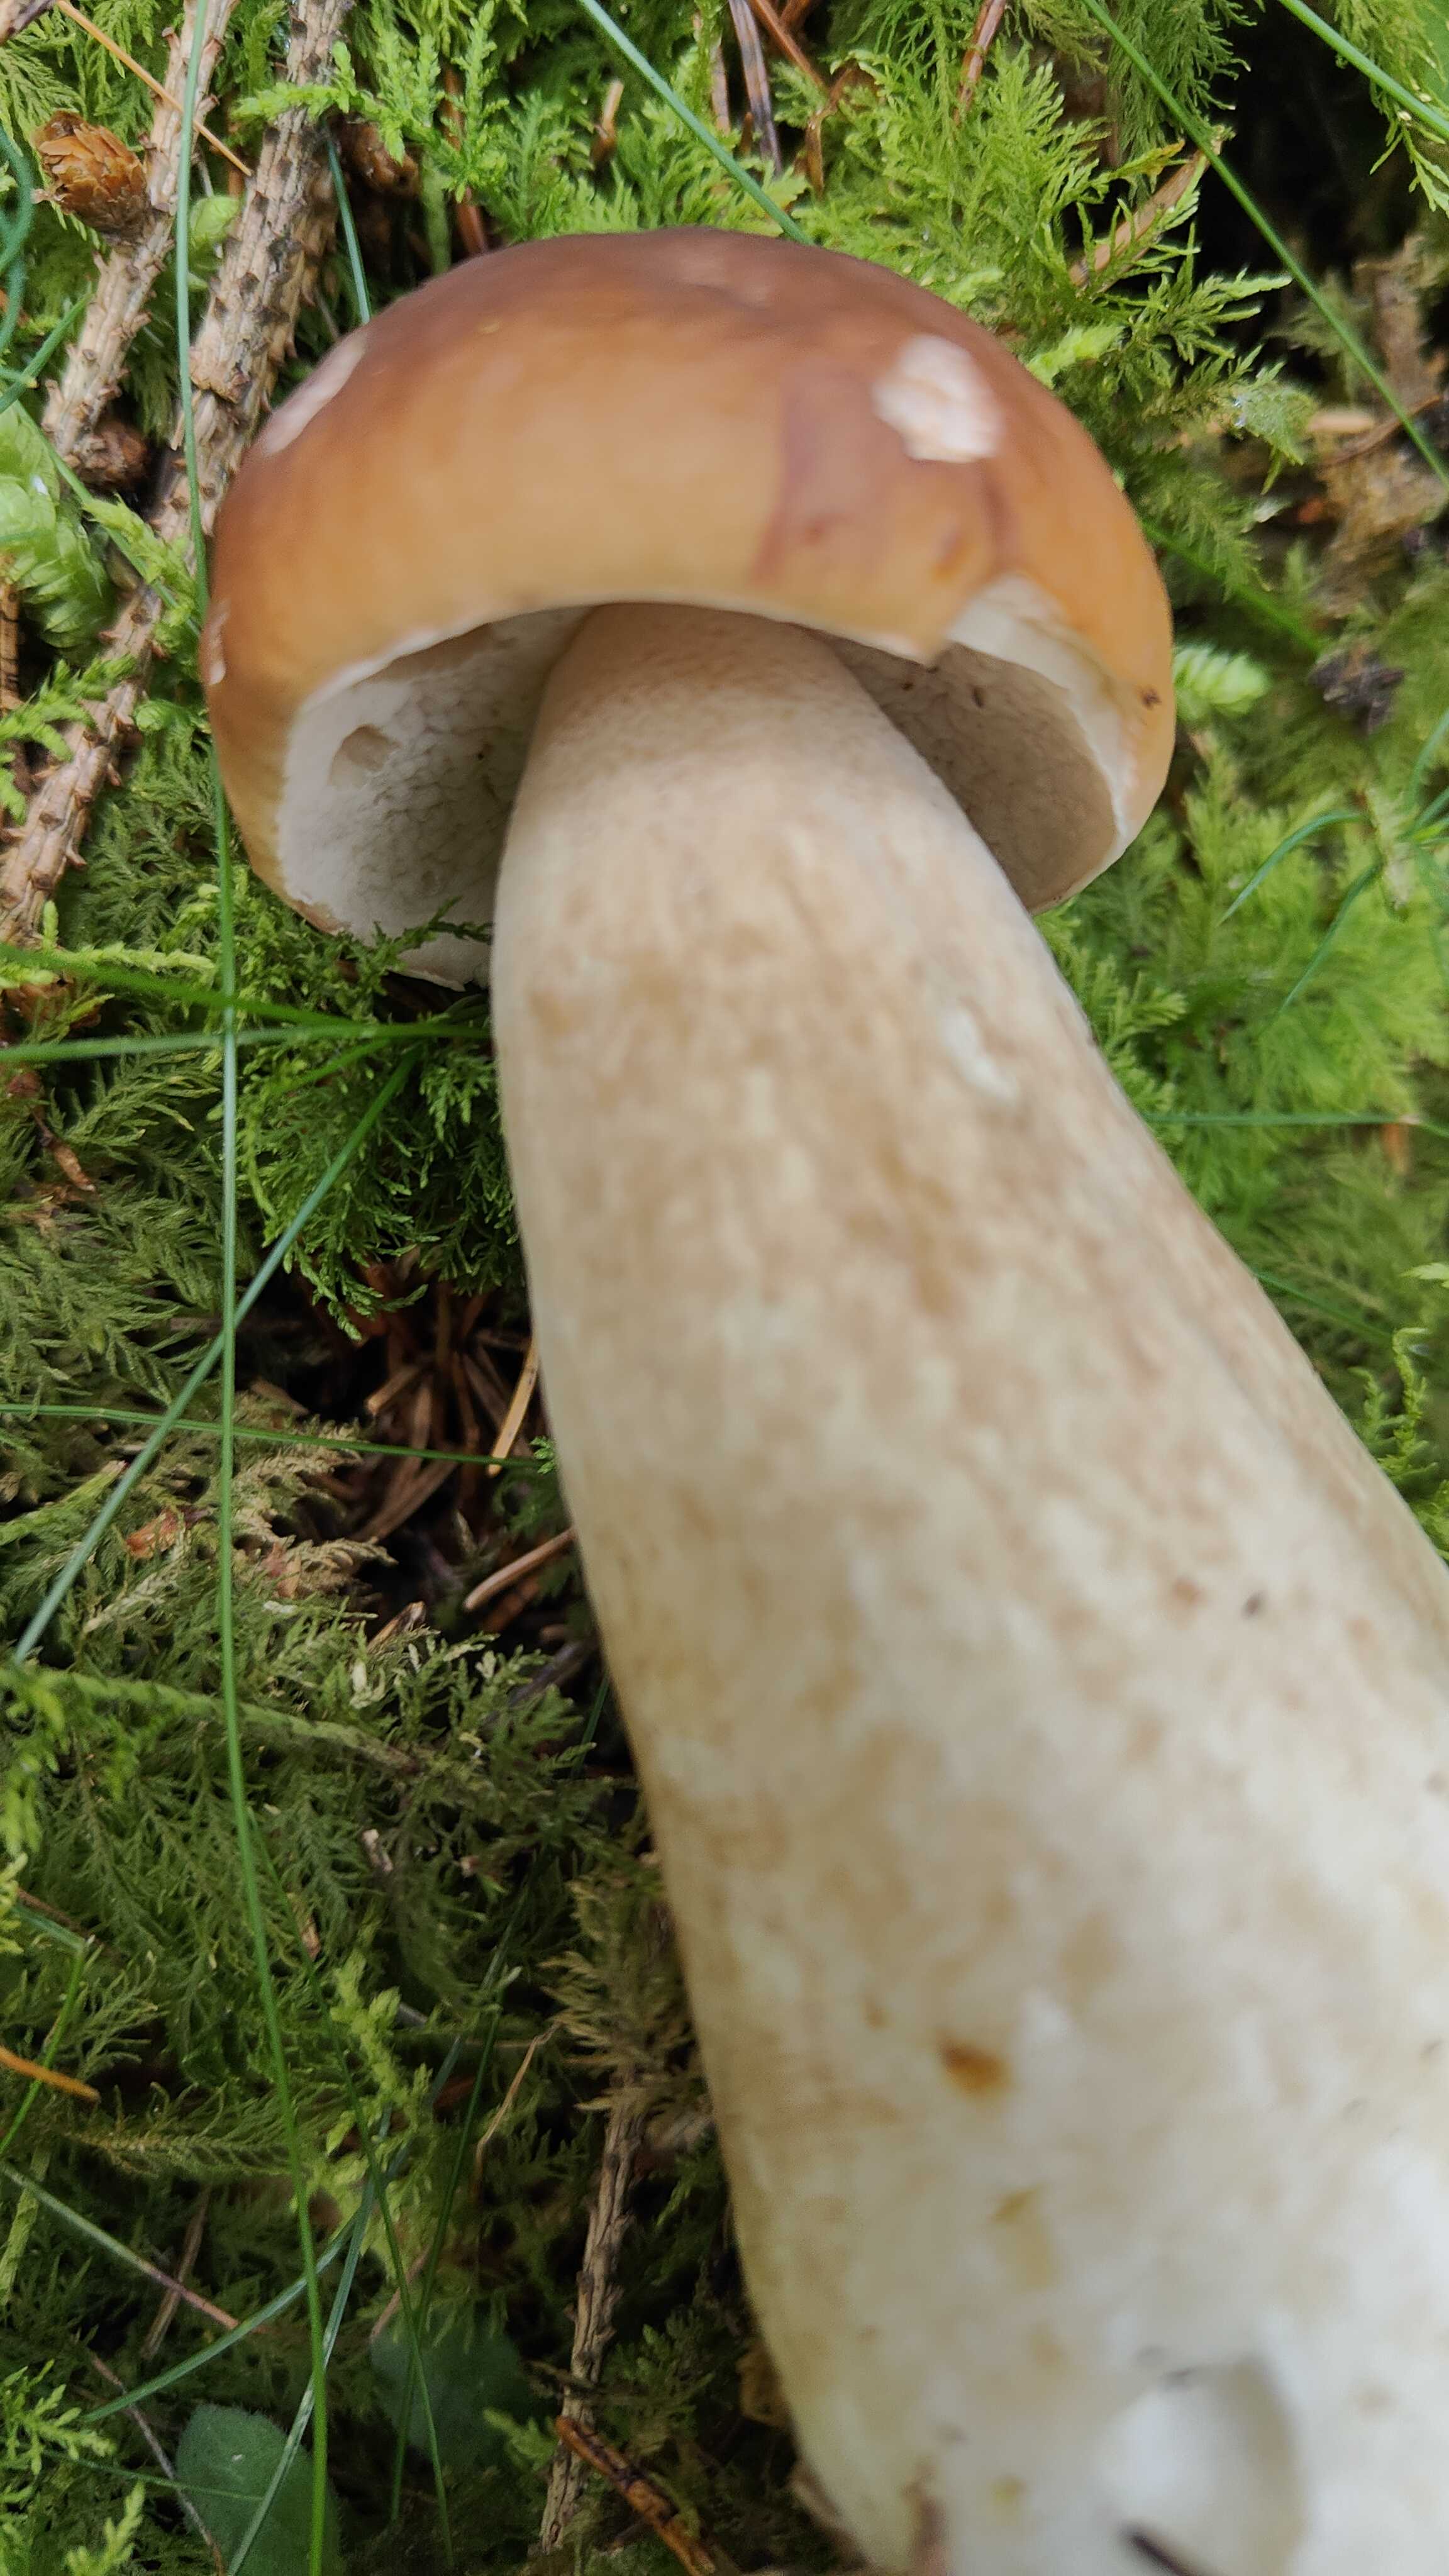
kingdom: Fungi
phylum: Basidiomycota
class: Agaricomycetes
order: Boletales
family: Boletaceae
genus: Boletus
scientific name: Boletus edulis
